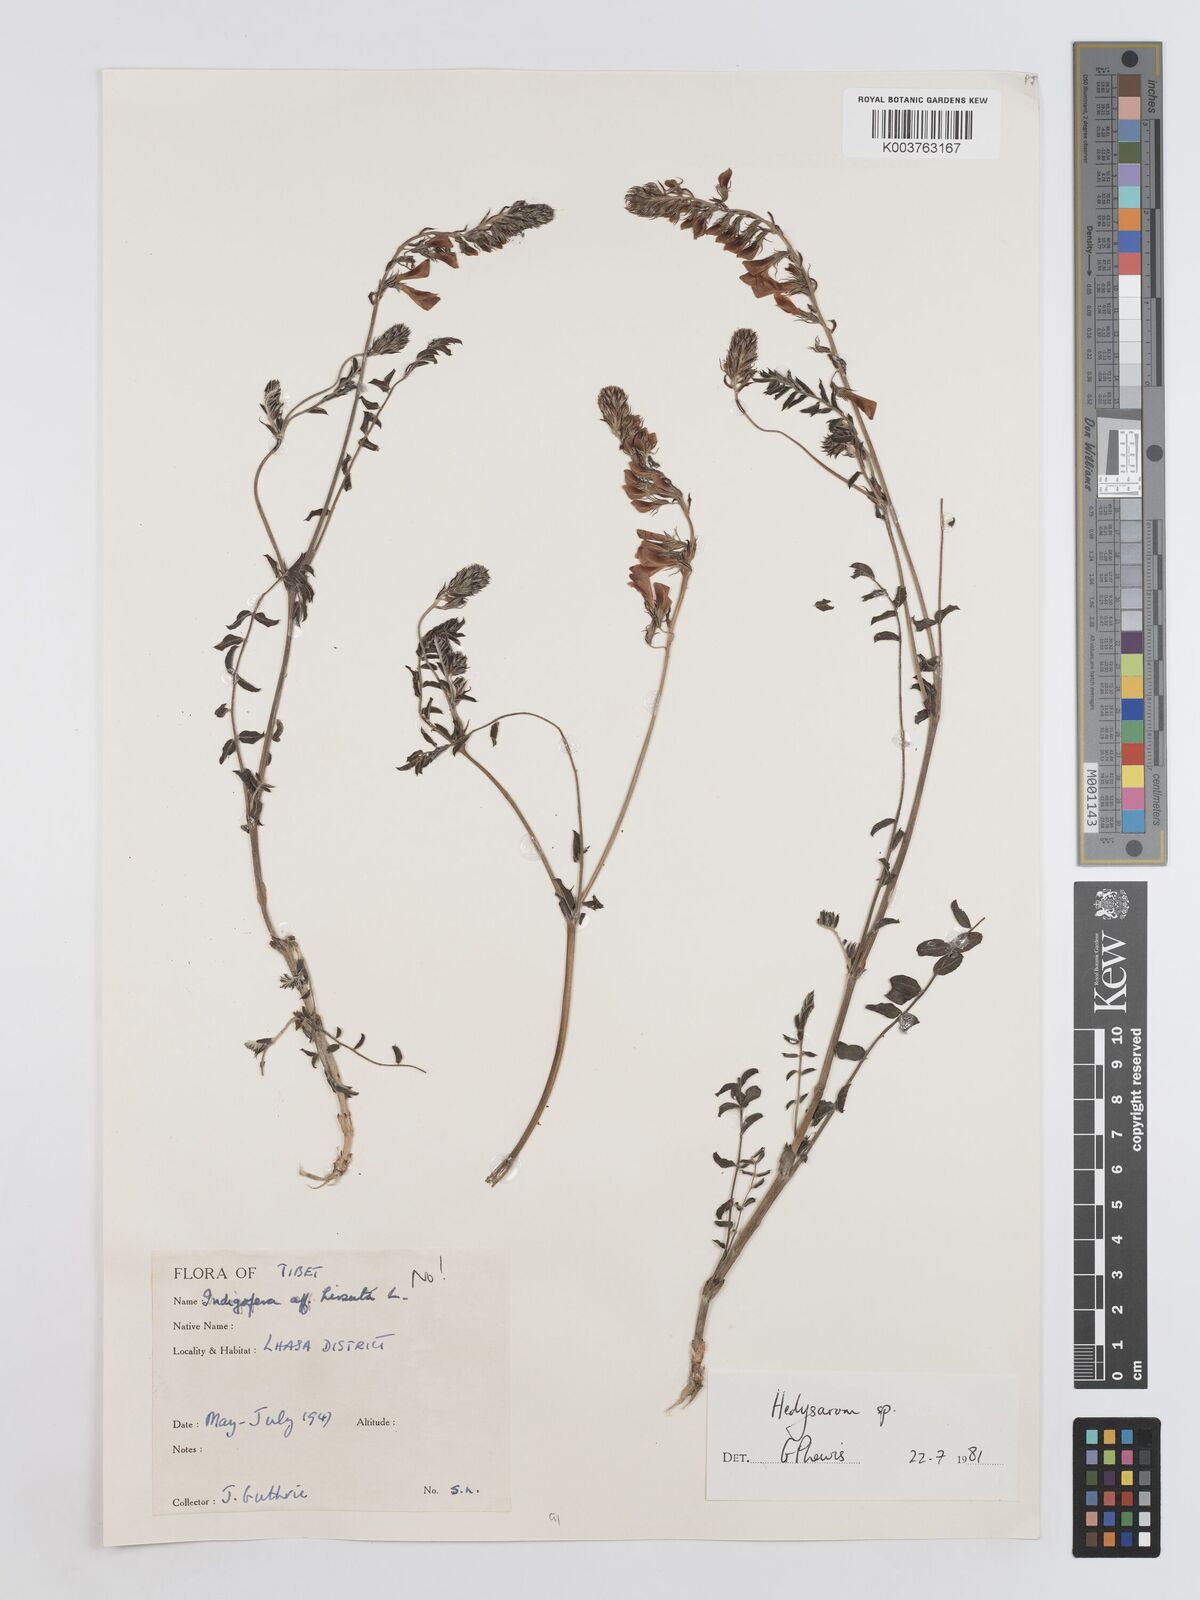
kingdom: Plantae
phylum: Tracheophyta
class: Magnoliopsida
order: Fabales
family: Fabaceae
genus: Hedysarum
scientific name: Hedysarum
